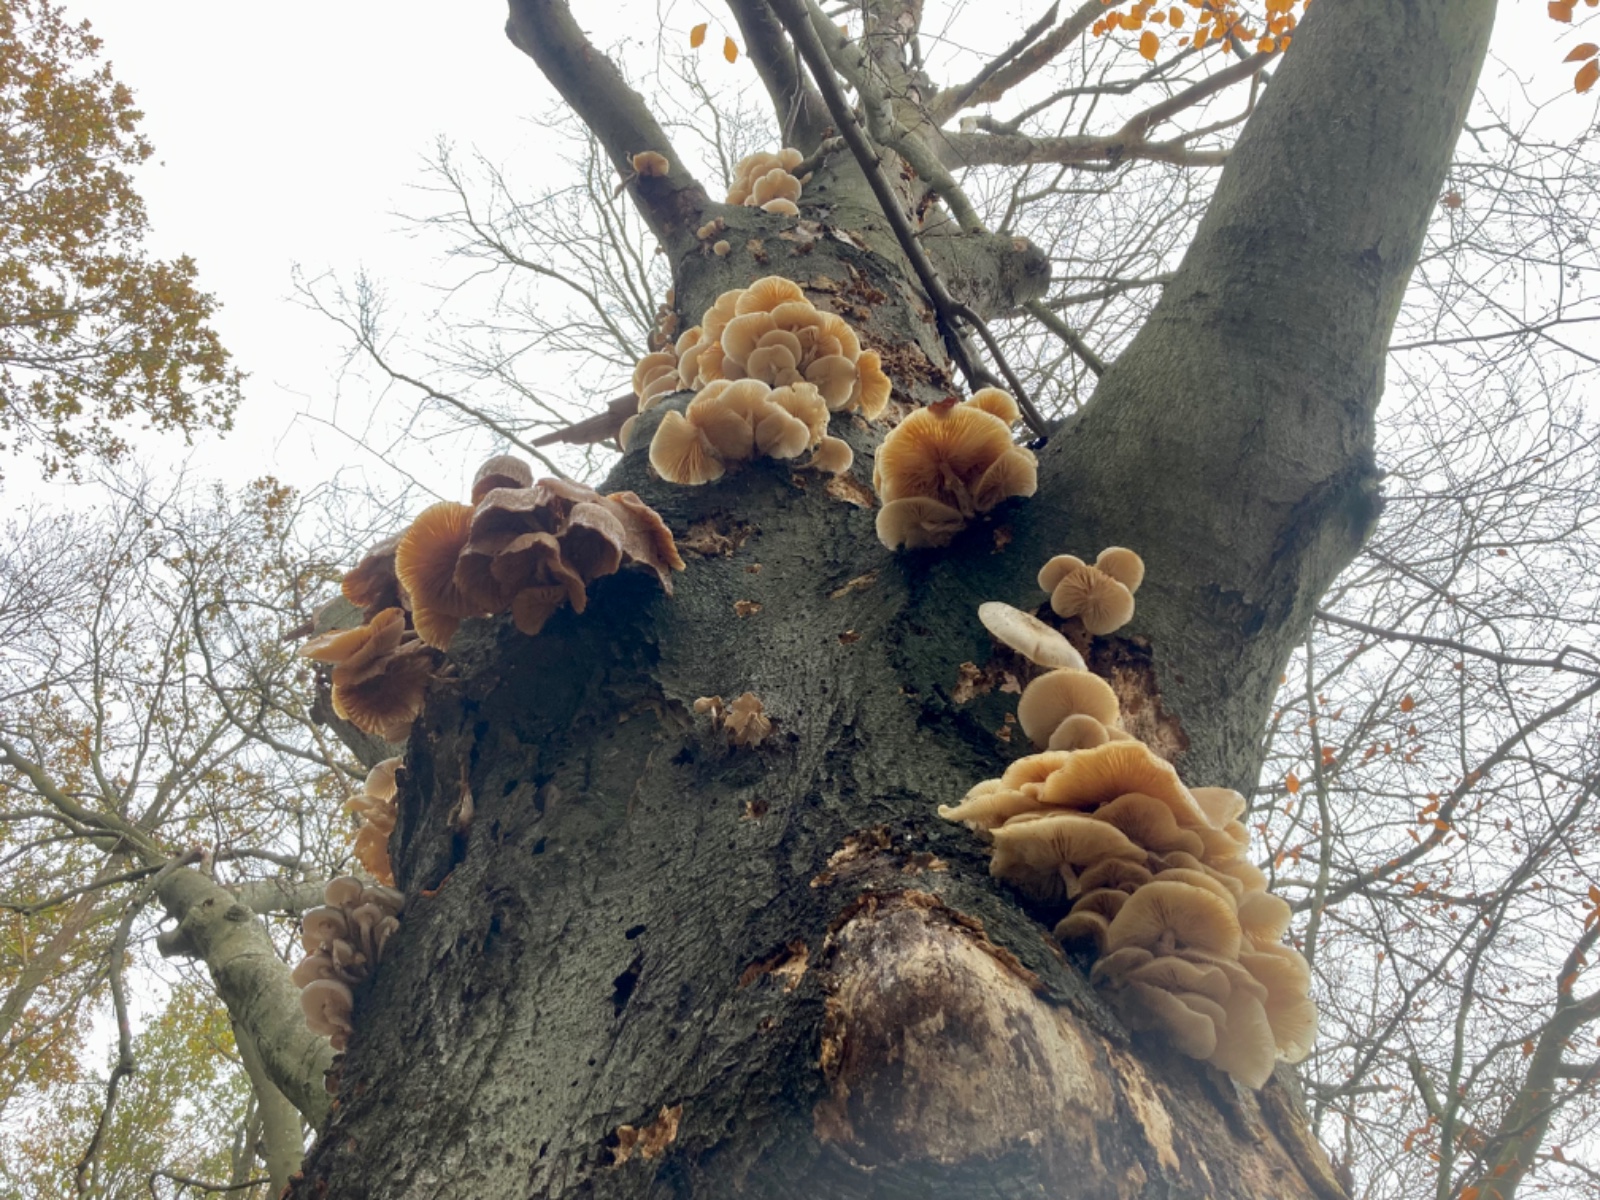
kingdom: Fungi
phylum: Basidiomycota
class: Agaricomycetes
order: Agaricales
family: Pleurotaceae
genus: Pleurotus
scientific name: Pleurotus ostreatus
